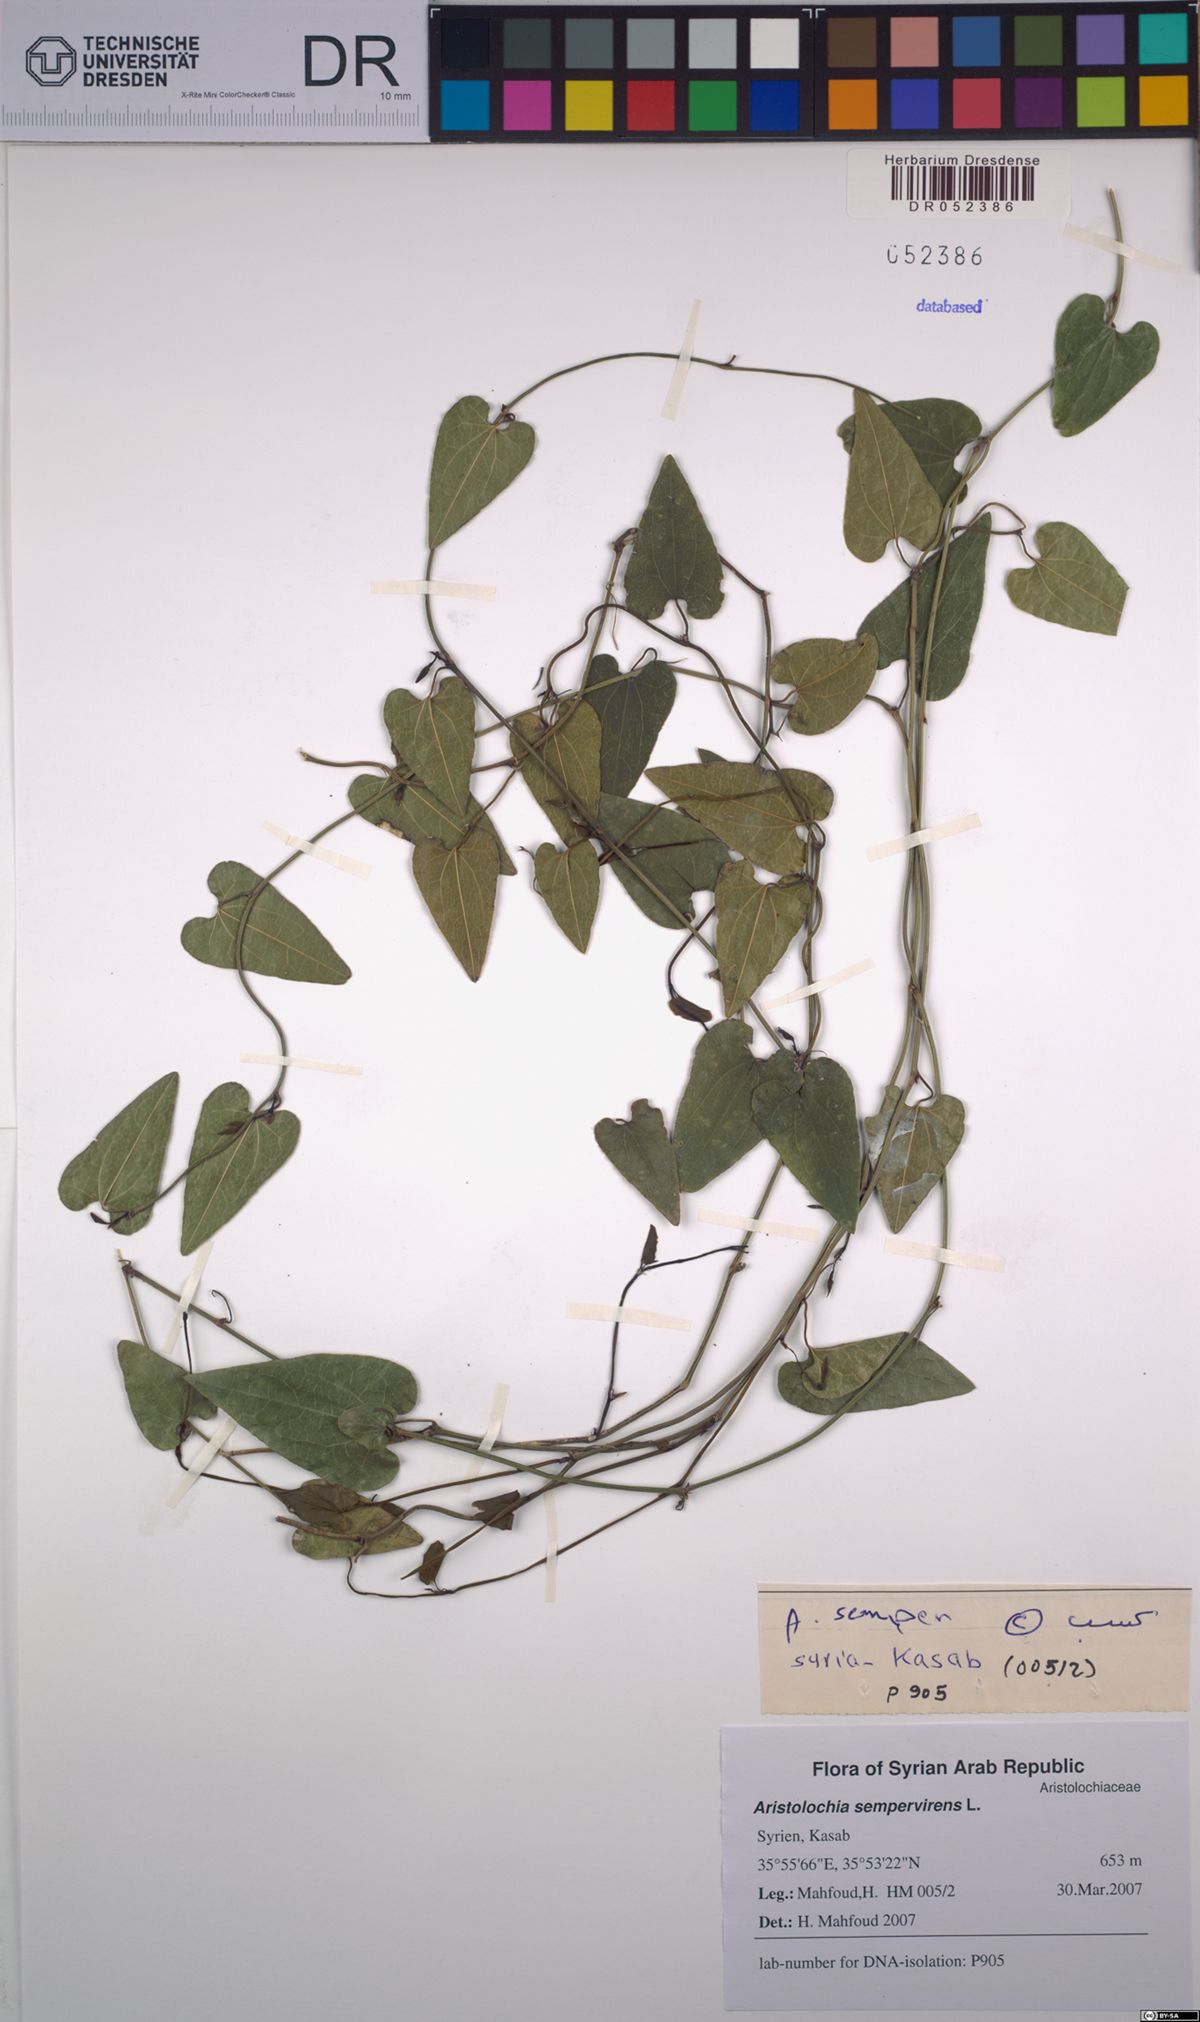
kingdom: Plantae
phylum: Tracheophyta
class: Magnoliopsida
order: Piperales
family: Aristolochiaceae
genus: Aristolochia
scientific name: Aristolochia sempervirens
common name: Long birthwort
